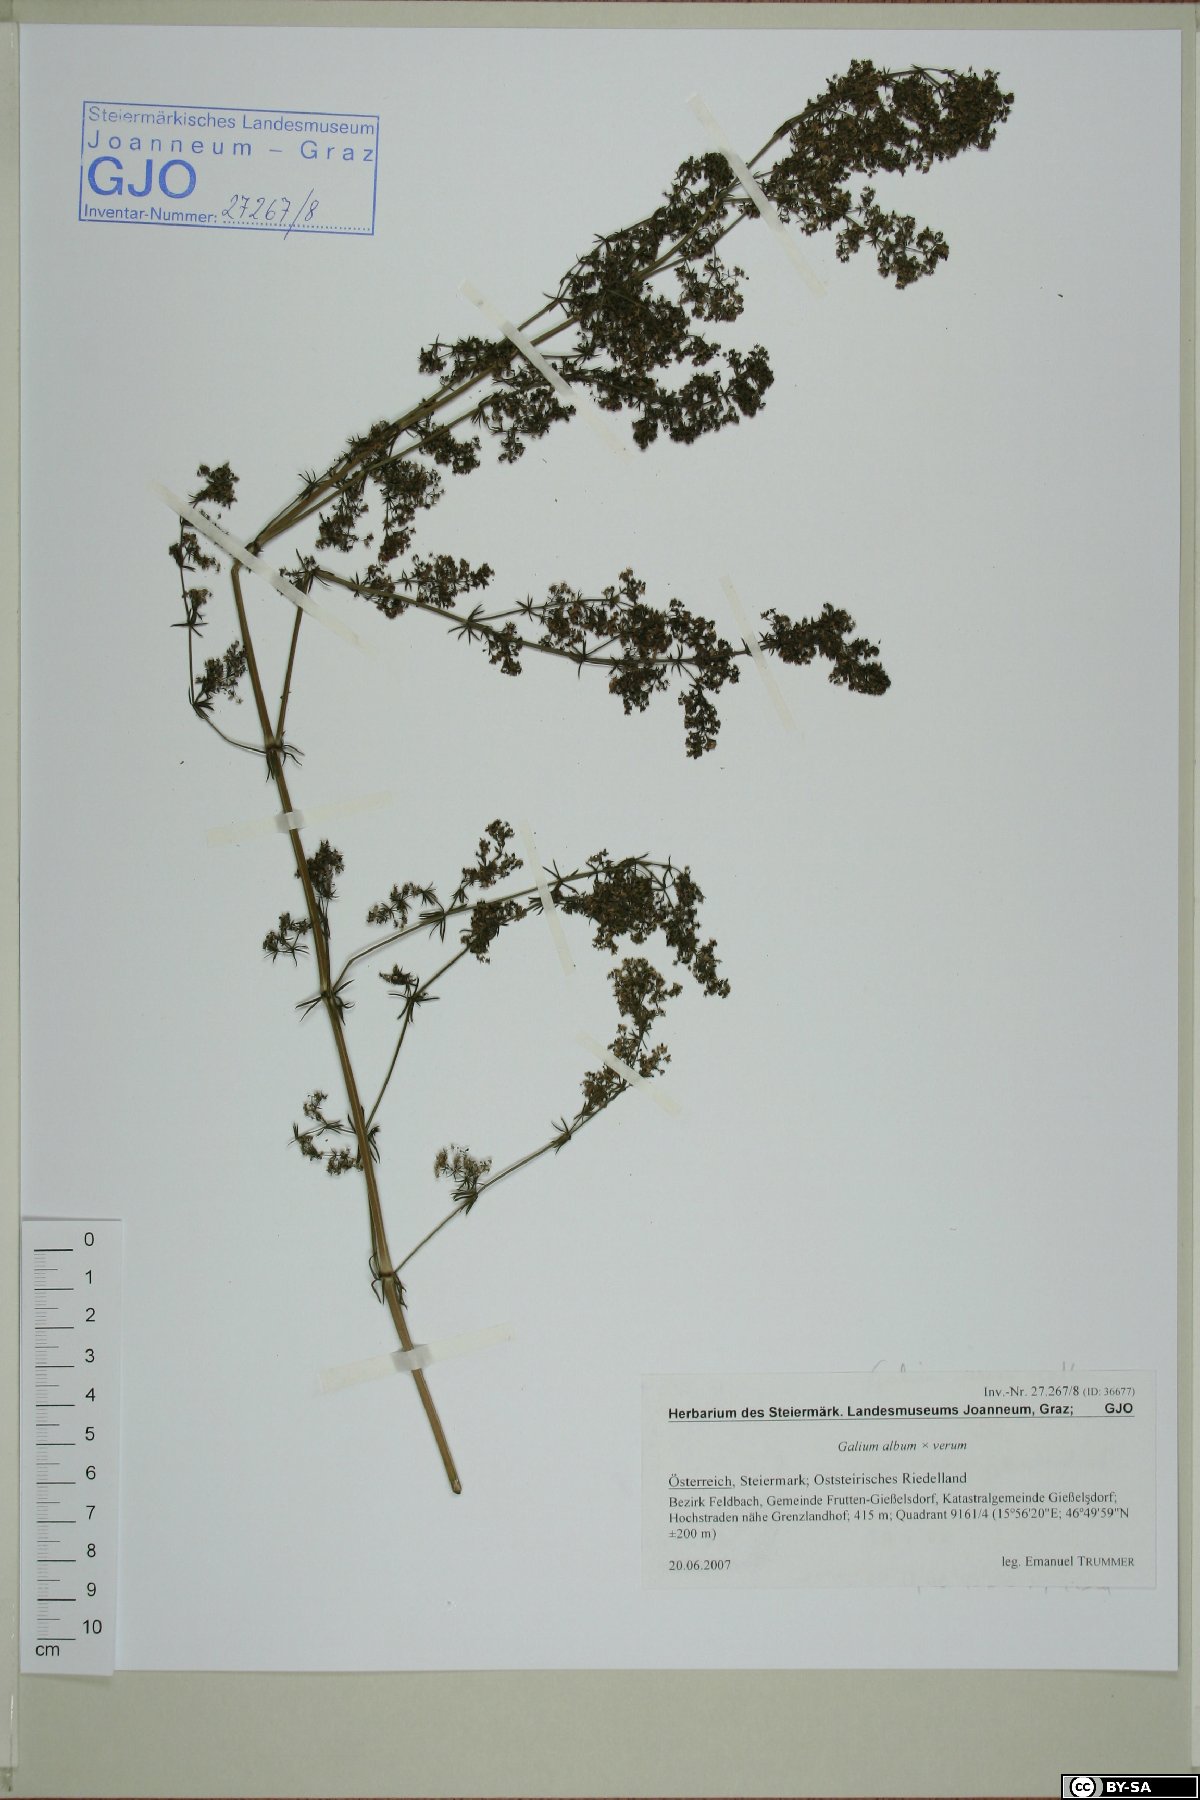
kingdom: Plantae
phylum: Tracheophyta
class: Magnoliopsida
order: Gentianales
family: Rubiaceae
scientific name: Rubiaceae
